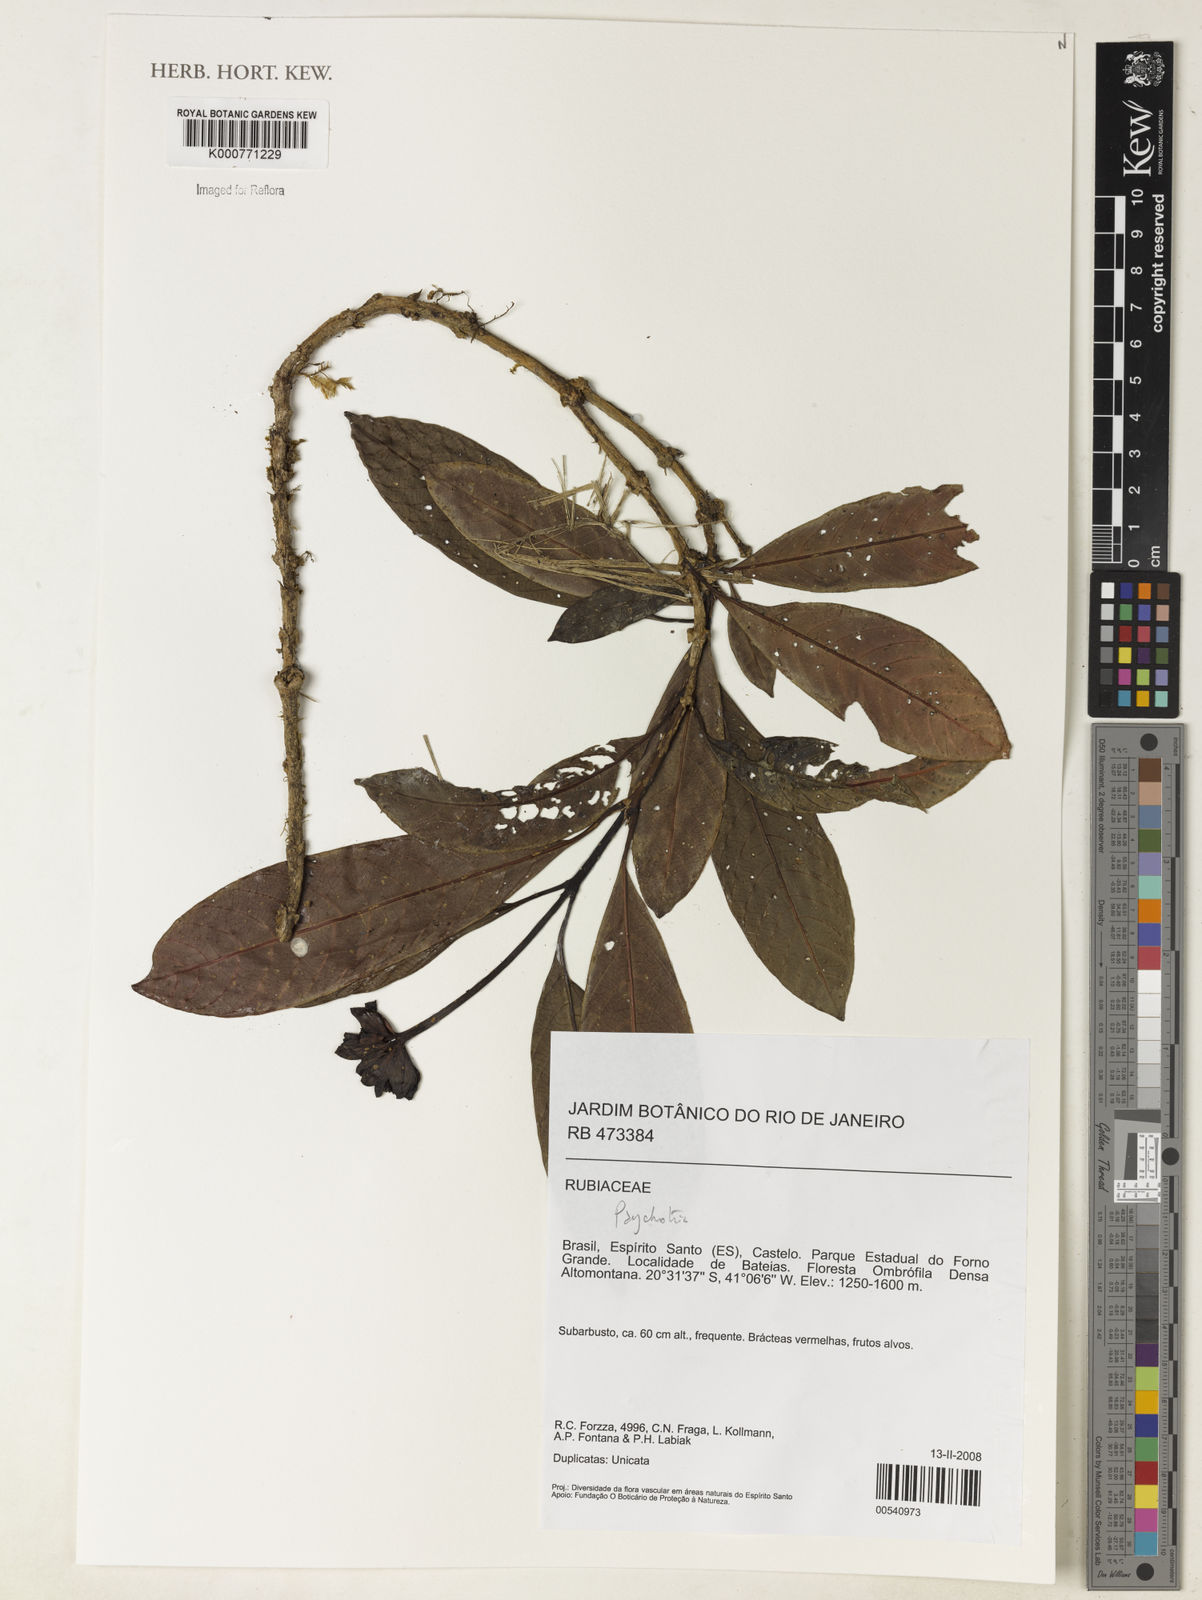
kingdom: Plantae
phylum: Tracheophyta
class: Magnoliopsida
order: Gentianales
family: Rubiaceae
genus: Psychotria
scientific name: Psychotria
